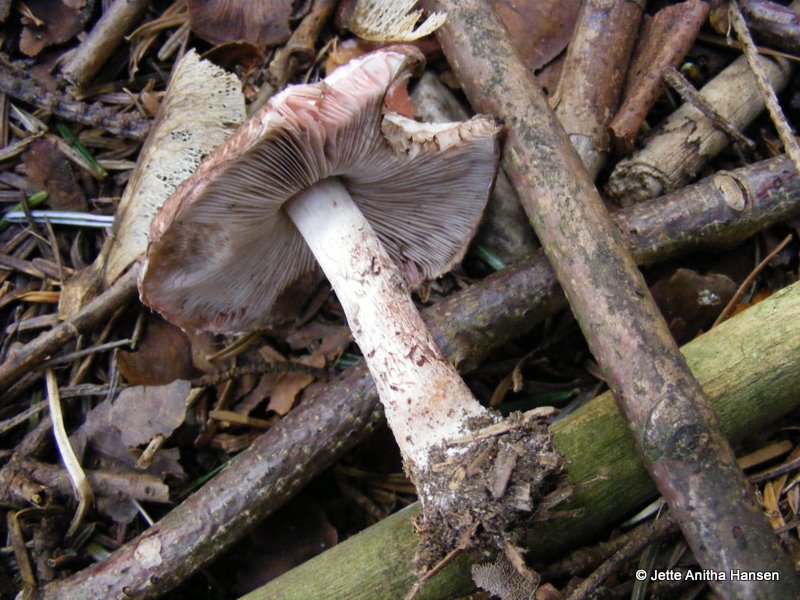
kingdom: Fungi
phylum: Basidiomycota
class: Agaricomycetes
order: Agaricales
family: Agaricaceae
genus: Agaricus
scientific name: Agaricus
